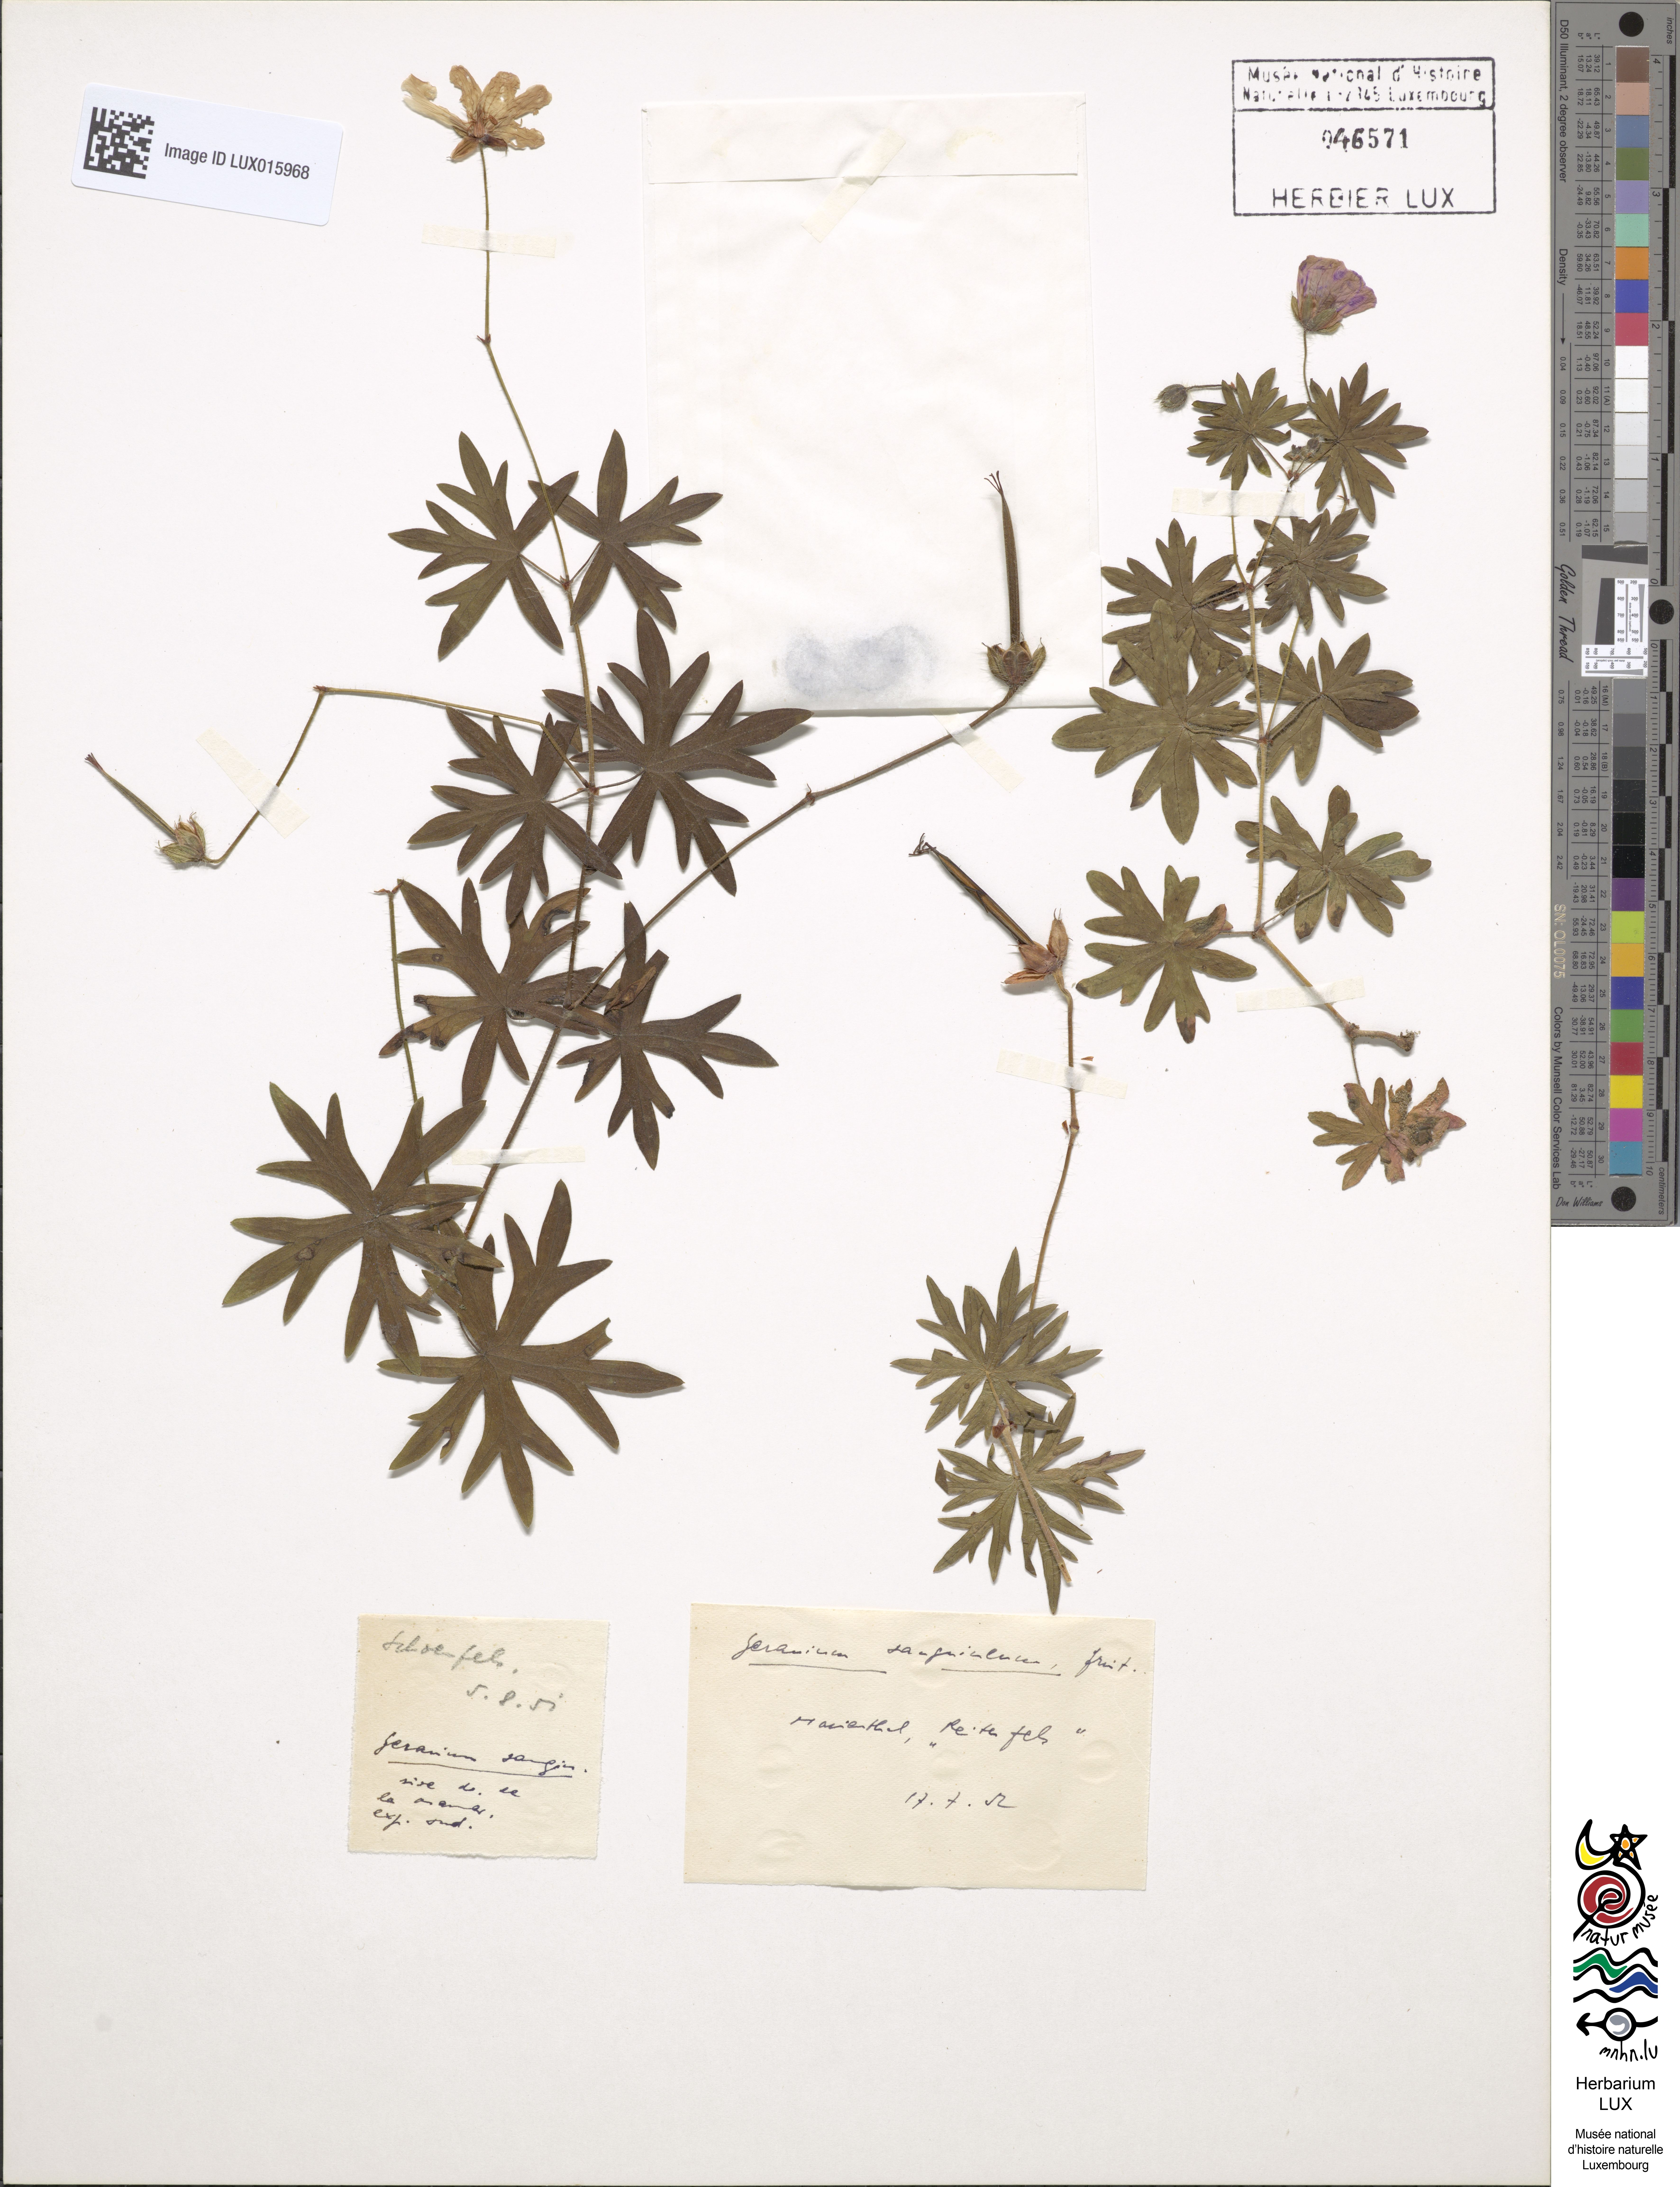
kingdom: Plantae
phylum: Tracheophyta
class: Magnoliopsida
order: Geraniales
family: Geraniaceae
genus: Geranium
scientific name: Geranium sanguineum
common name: Bloody crane's-bill
